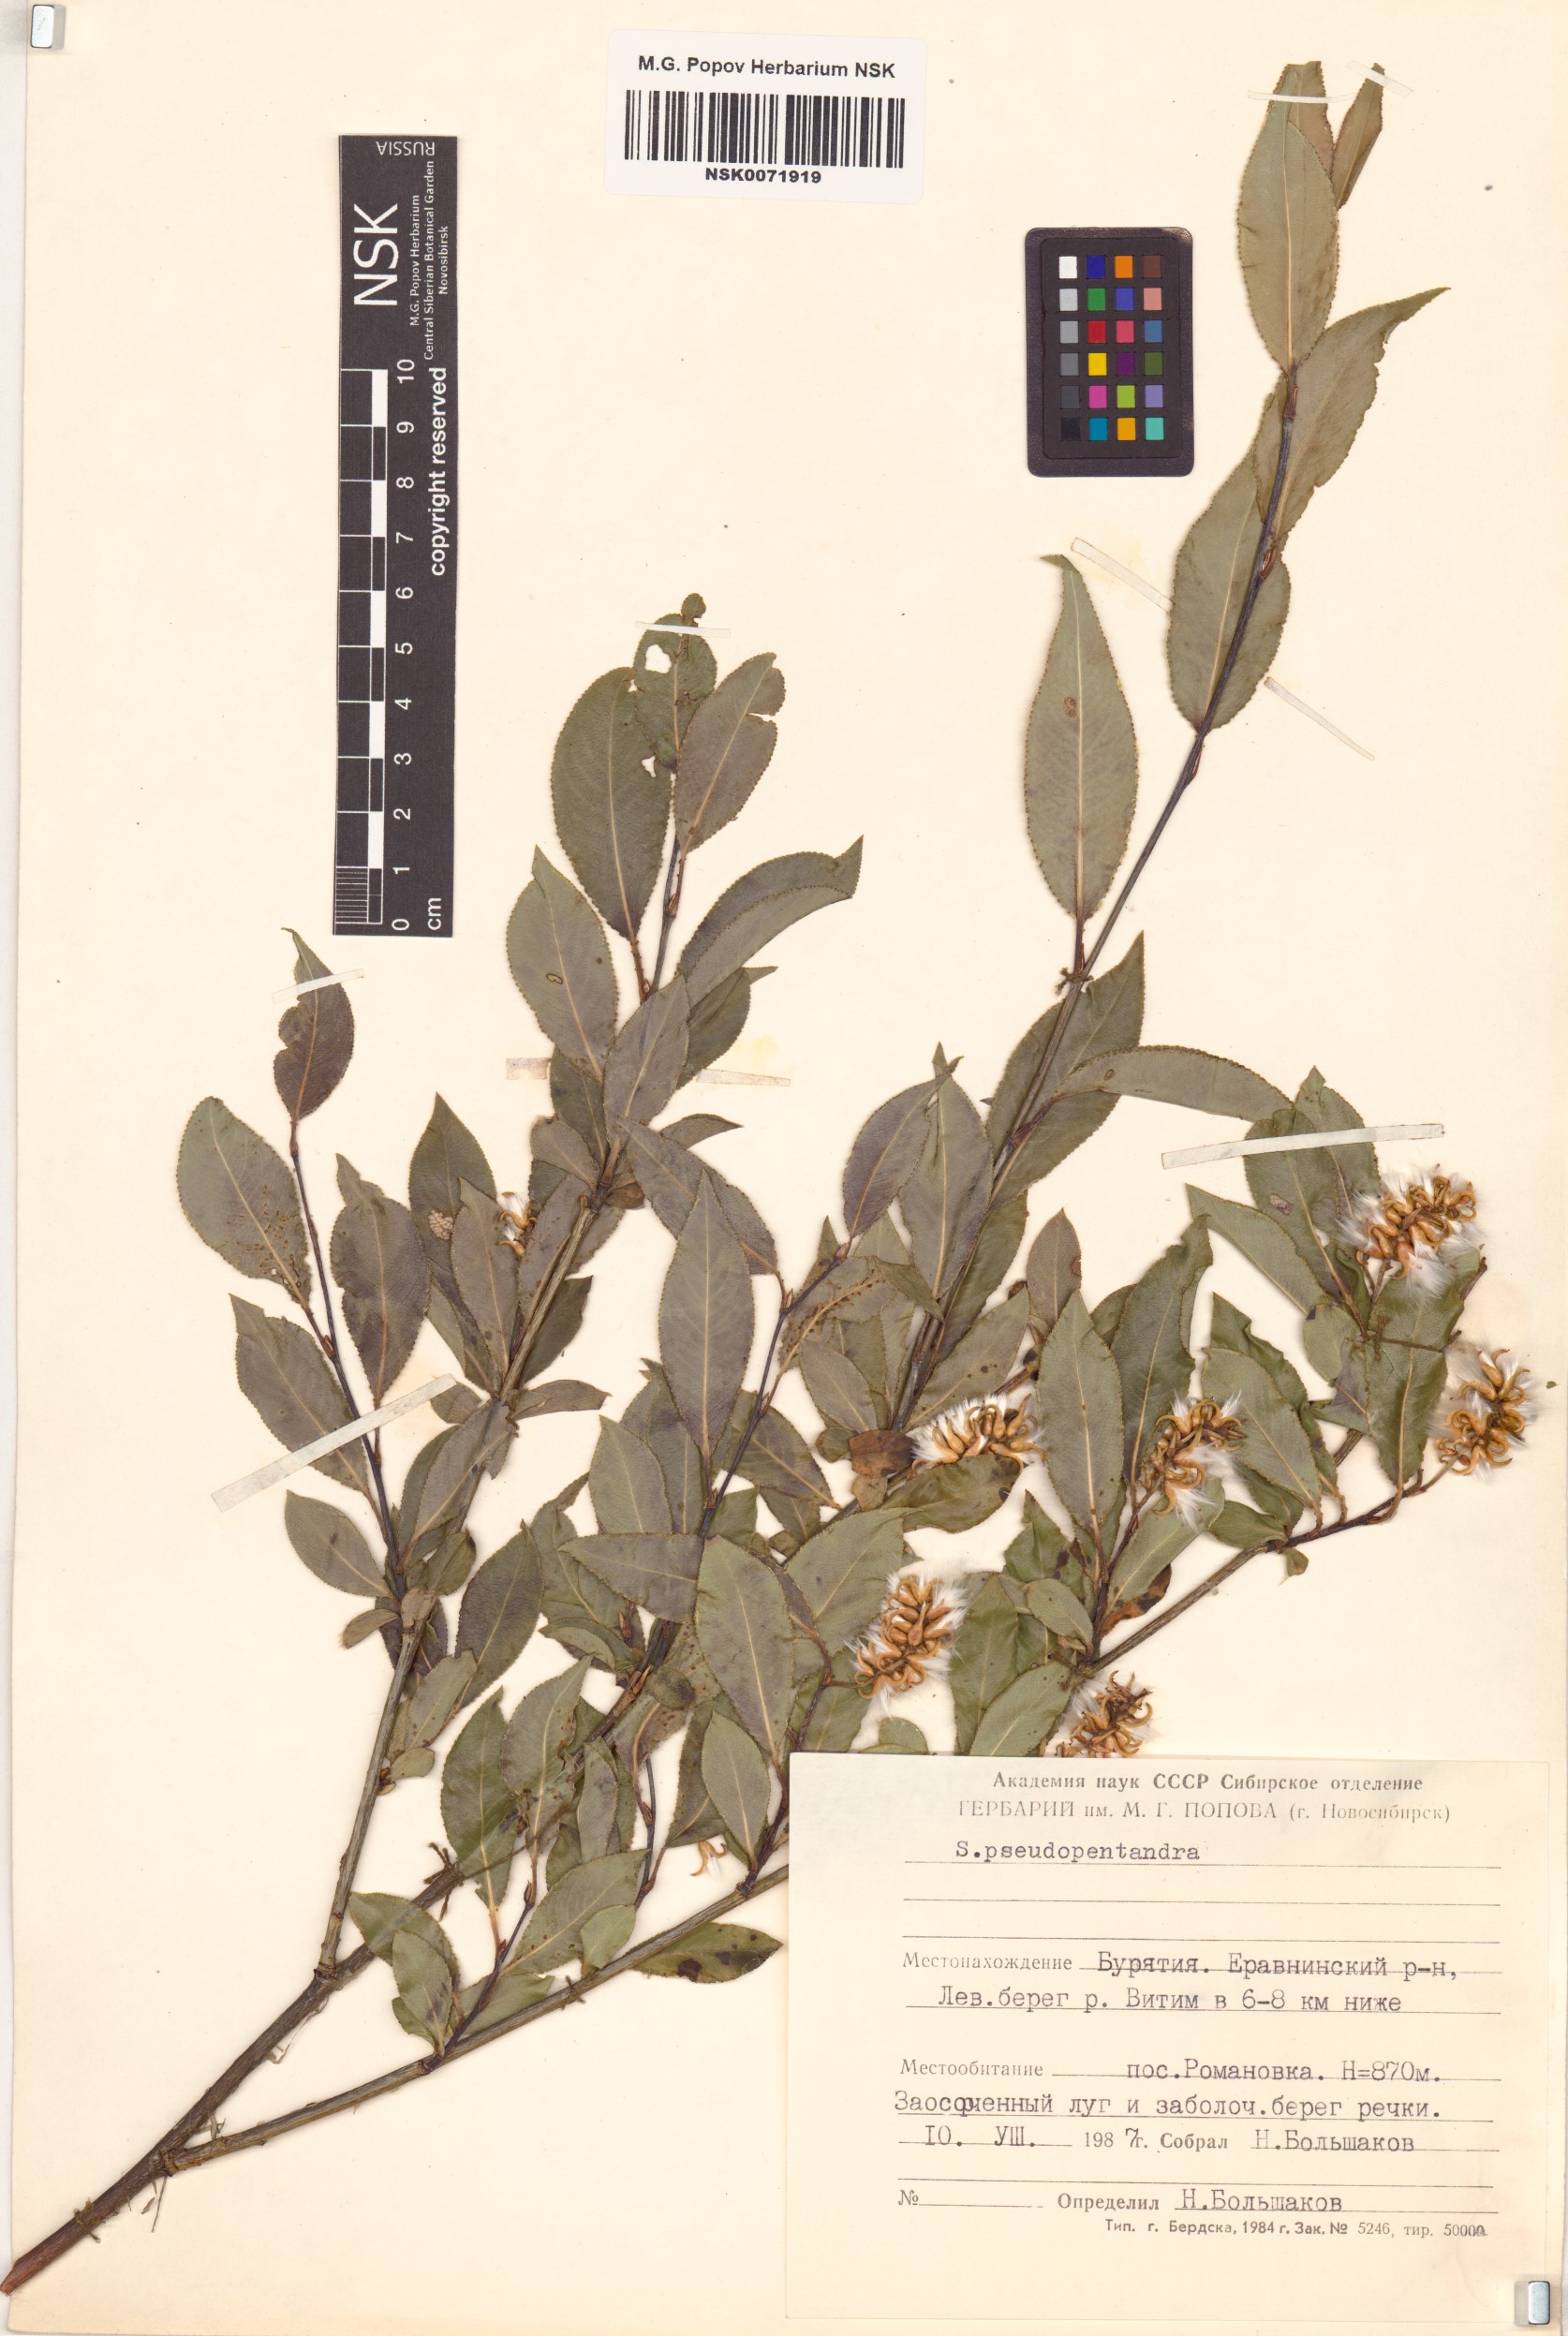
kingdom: Plantae
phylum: Tracheophyta
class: Magnoliopsida
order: Malpighiales
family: Salicaceae
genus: Salix
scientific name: Salix pseudopentandra
